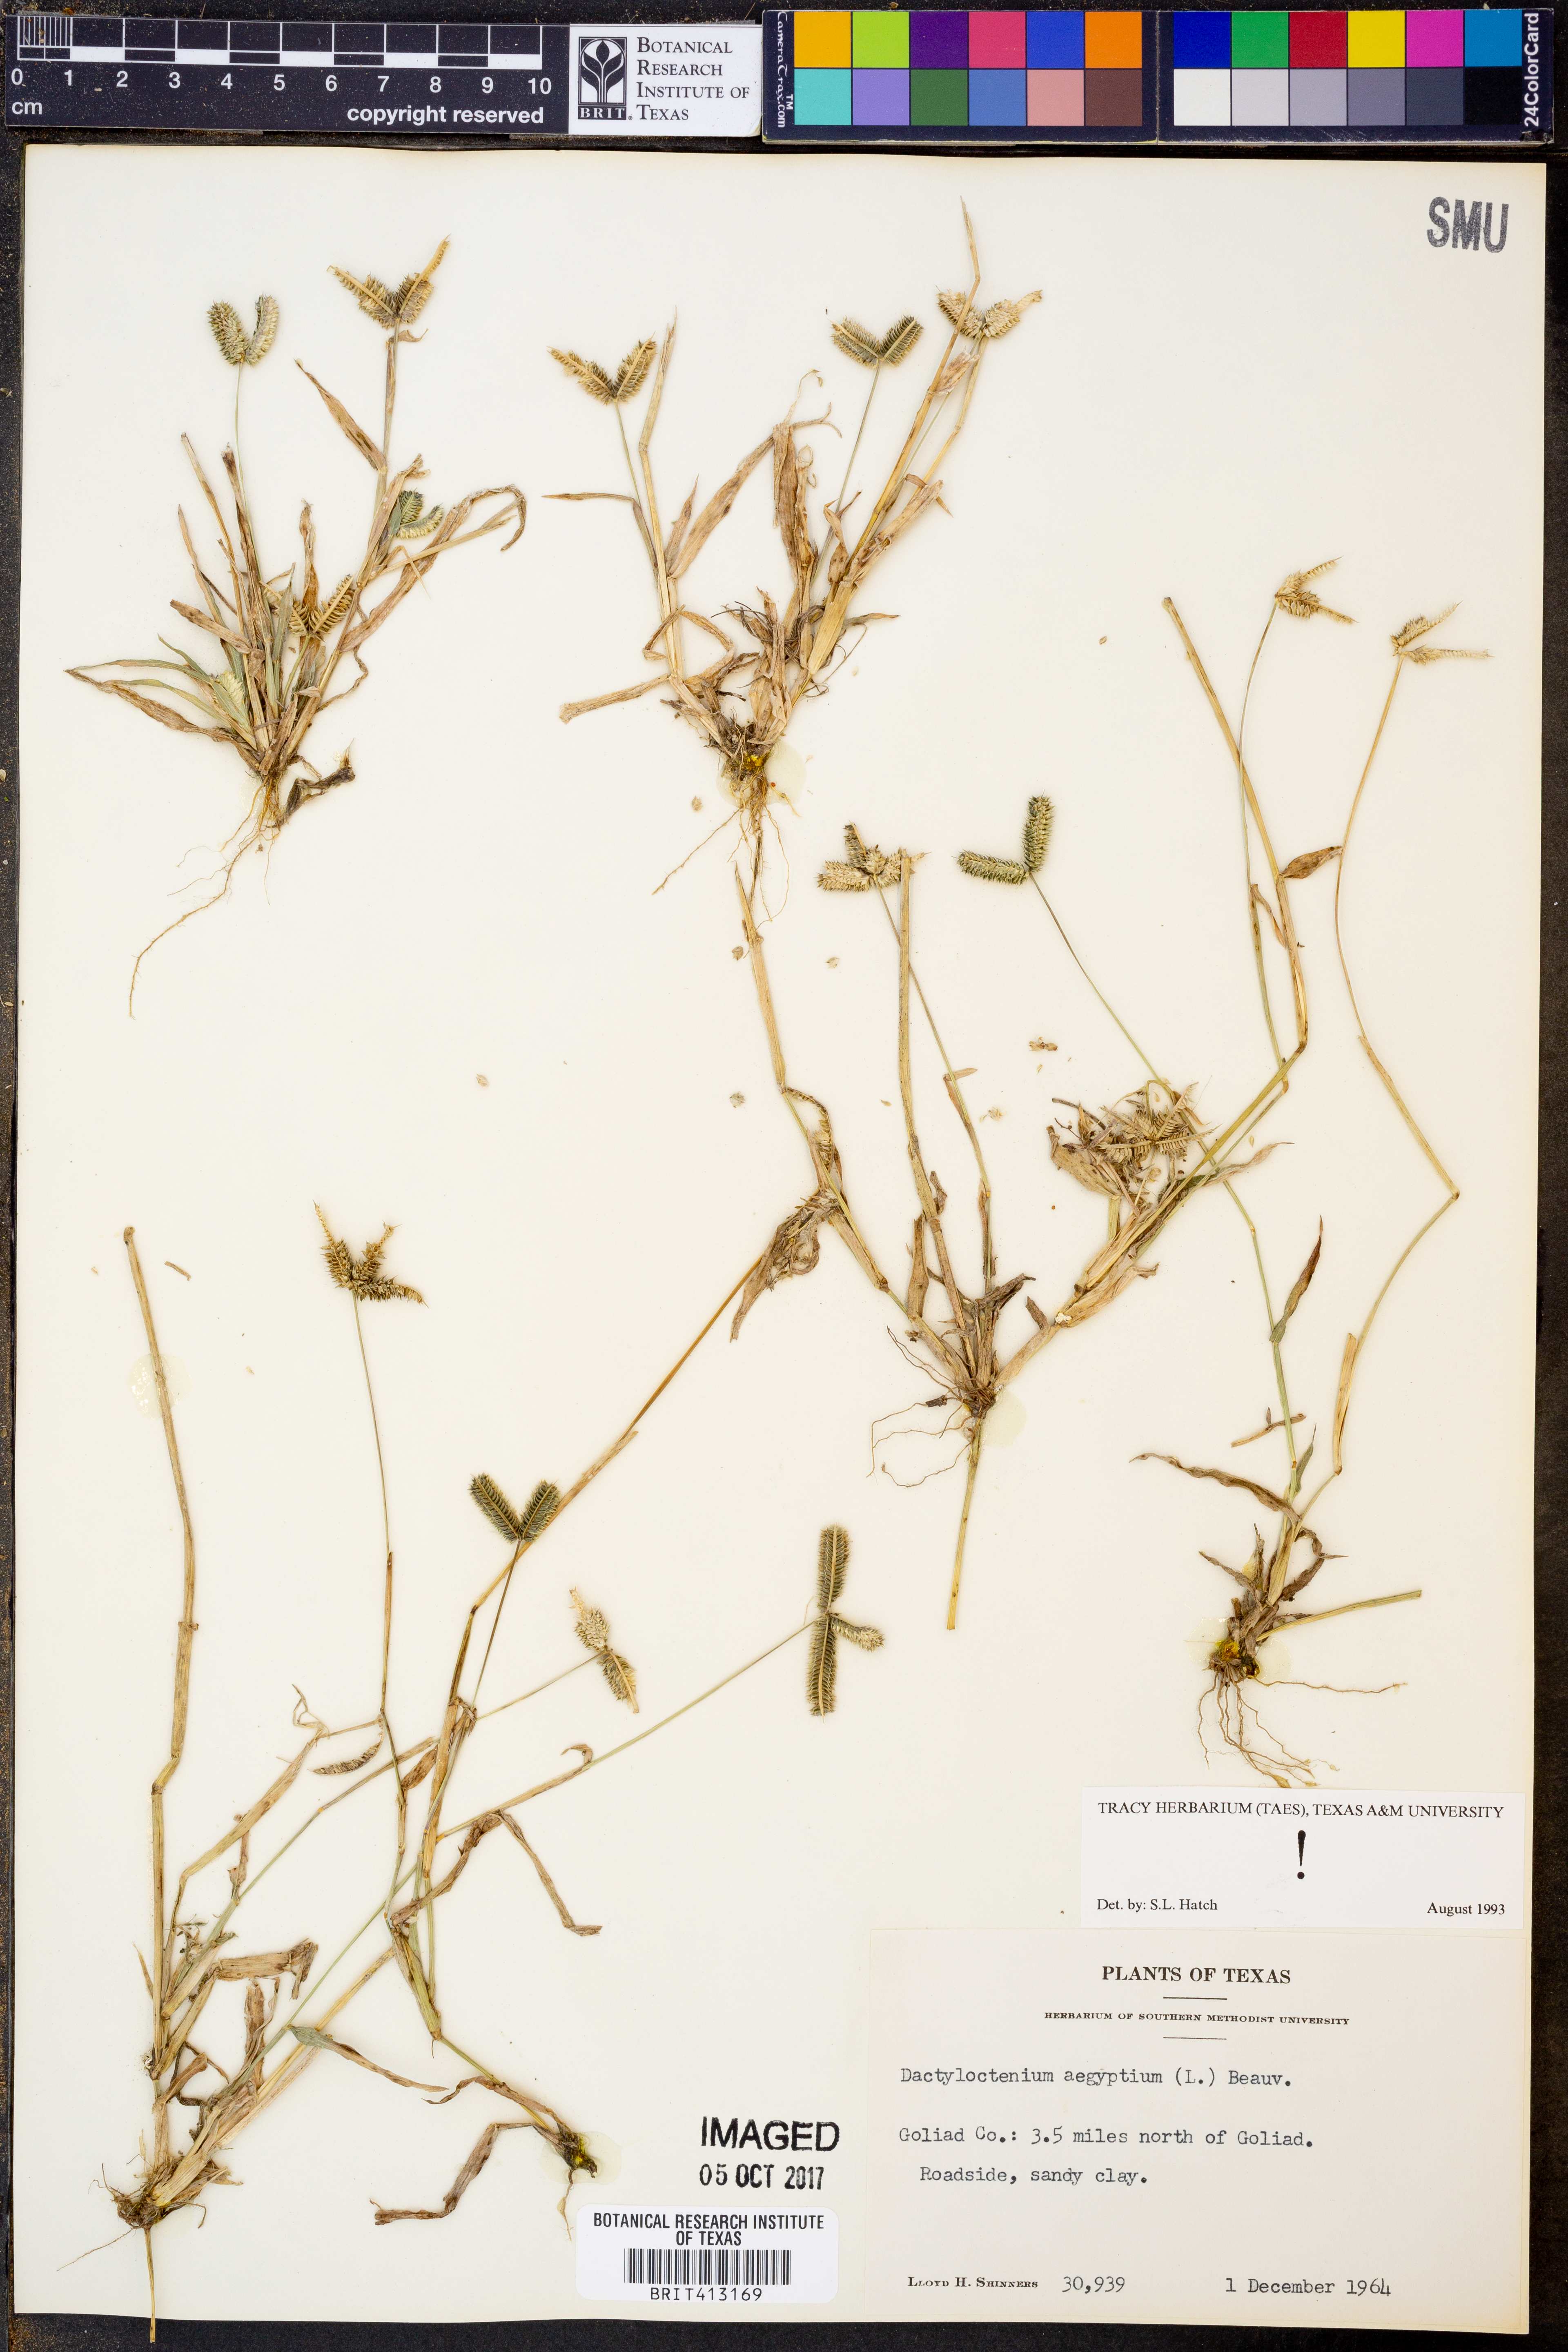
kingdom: Plantae
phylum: Tracheophyta
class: Liliopsida
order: Poales
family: Poaceae
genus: Dactyloctenium
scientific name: Dactyloctenium aegyptium
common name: Egyptian grass
